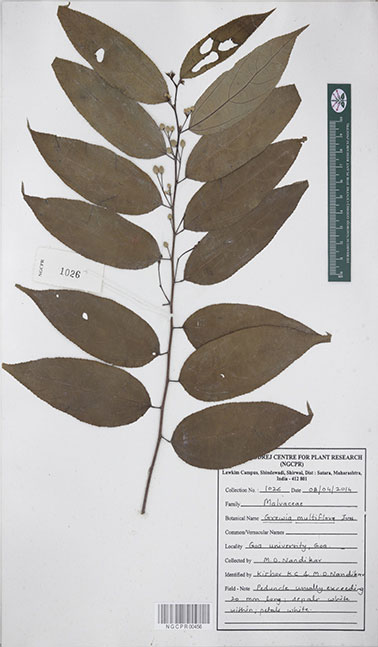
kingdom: Plantae
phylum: Tracheophyta
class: Magnoliopsida
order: Malvales
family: Malvaceae
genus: Grewia
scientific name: Grewia multiflora
